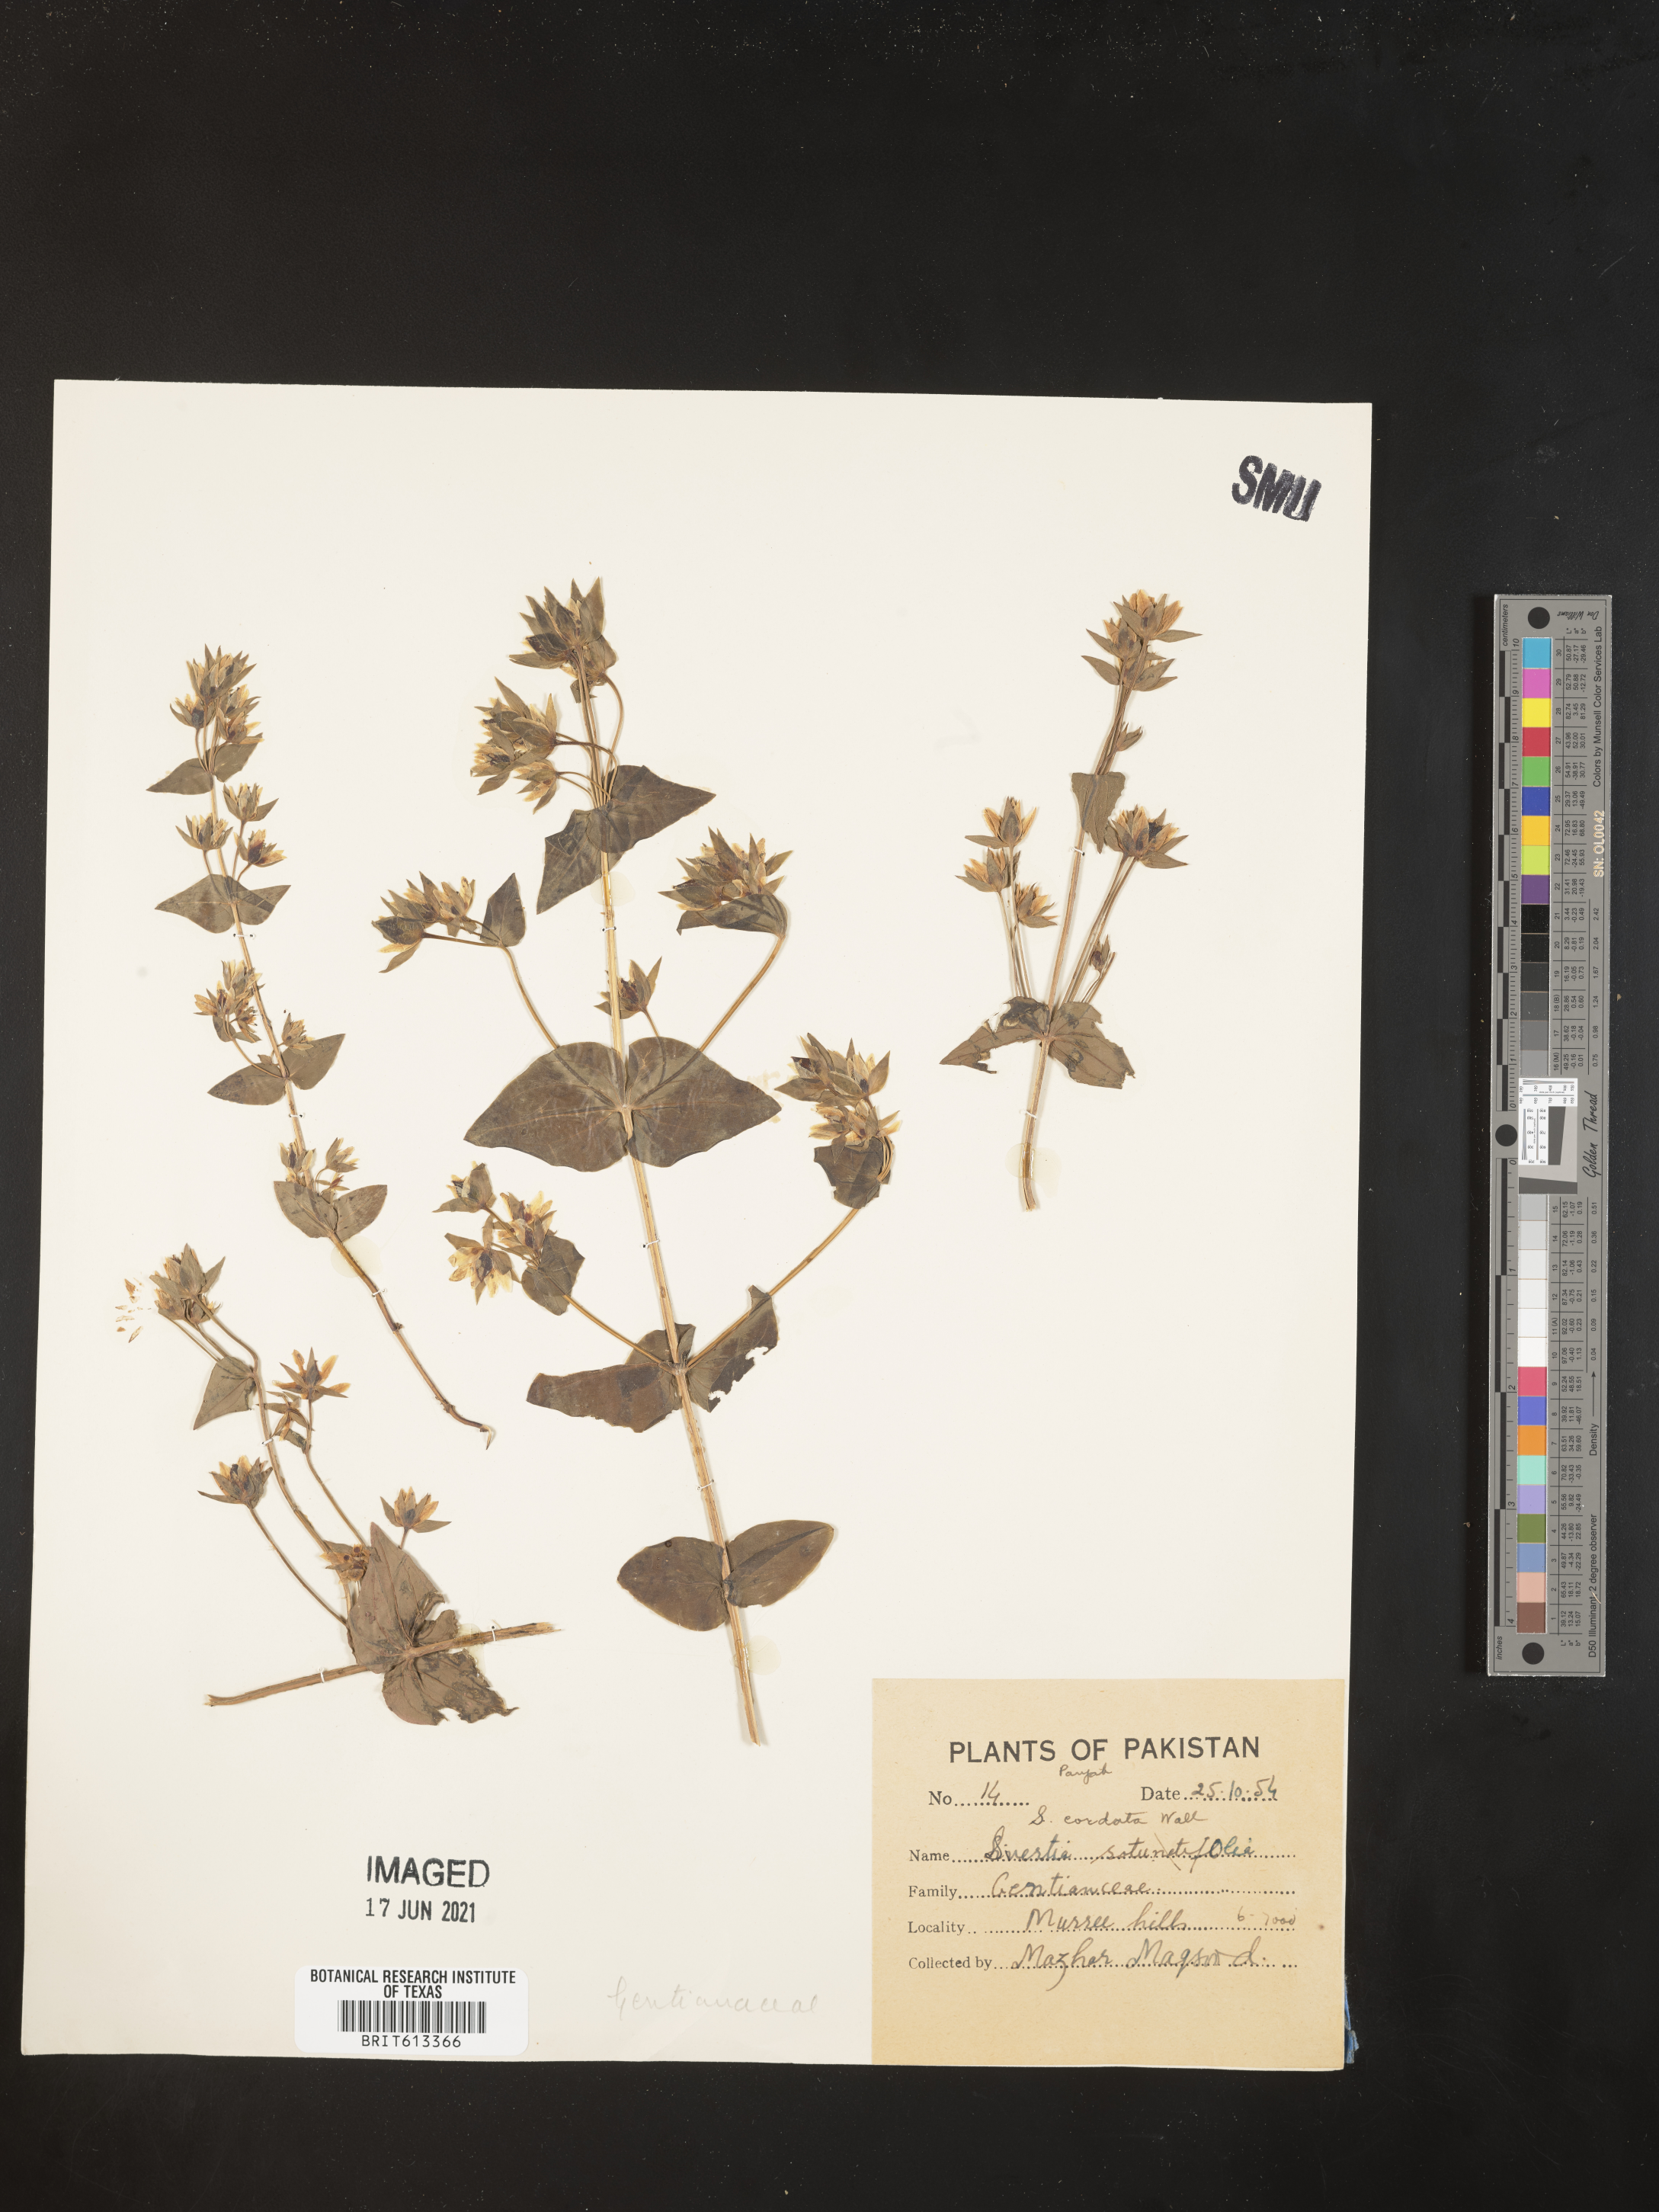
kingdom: Plantae
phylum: Tracheophyta
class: Magnoliopsida
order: Gentianales
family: Gentianaceae
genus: Swertia
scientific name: Swertia cordata
